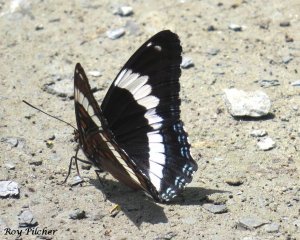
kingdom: Animalia
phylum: Arthropoda
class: Insecta
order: Lepidoptera
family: Nymphalidae
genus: Limenitis
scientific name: Limenitis arthemis
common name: Red-spotted Admiral
